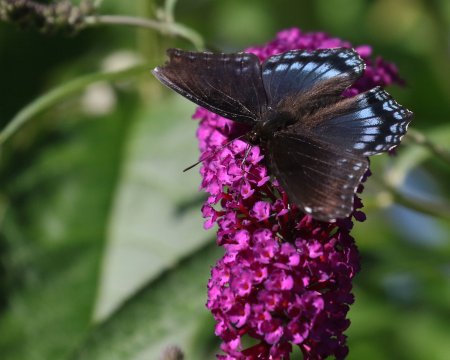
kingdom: Animalia
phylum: Arthropoda
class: Insecta
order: Lepidoptera
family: Nymphalidae
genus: Limenitis
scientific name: Limenitis arthemis
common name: Red-spotted Admiral
